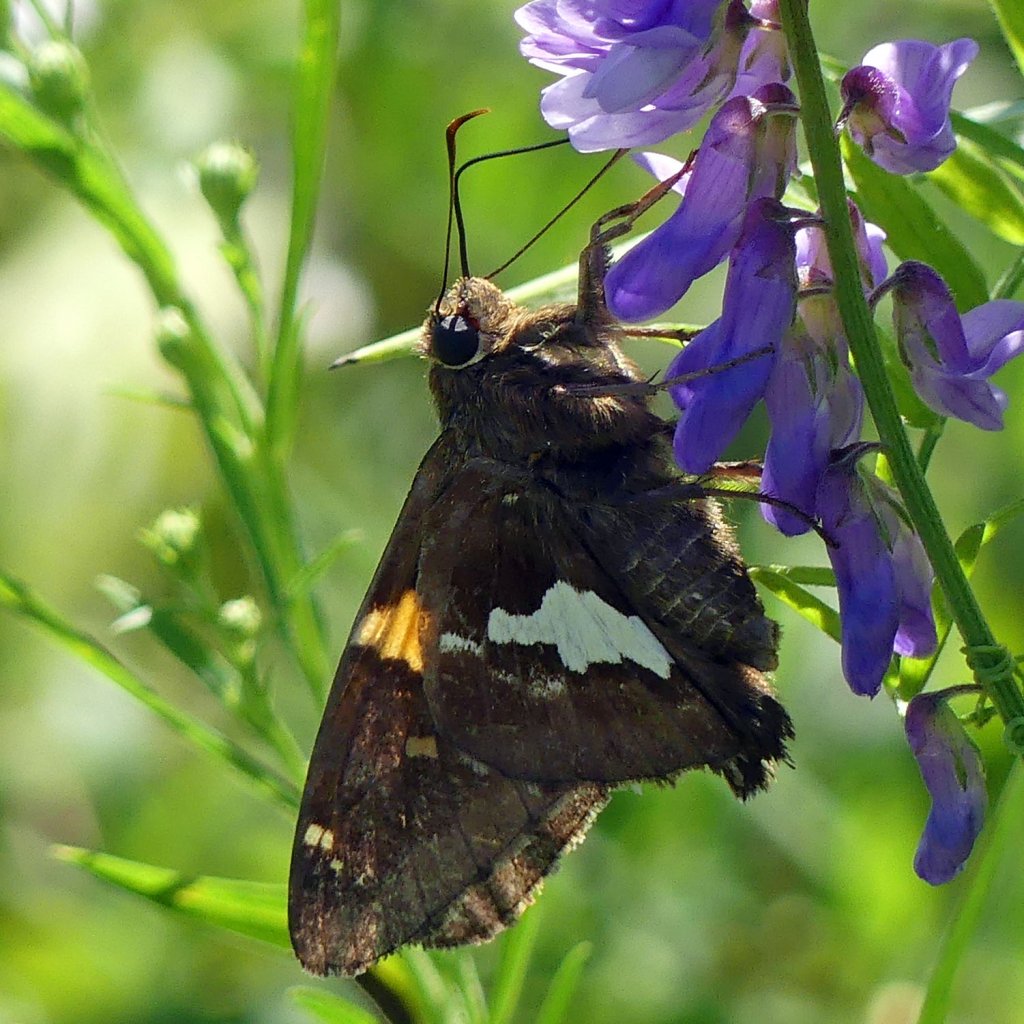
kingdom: Animalia
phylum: Arthropoda
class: Insecta
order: Lepidoptera
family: Hesperiidae
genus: Epargyreus
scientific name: Epargyreus clarus
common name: Silver-spotted Skipper
